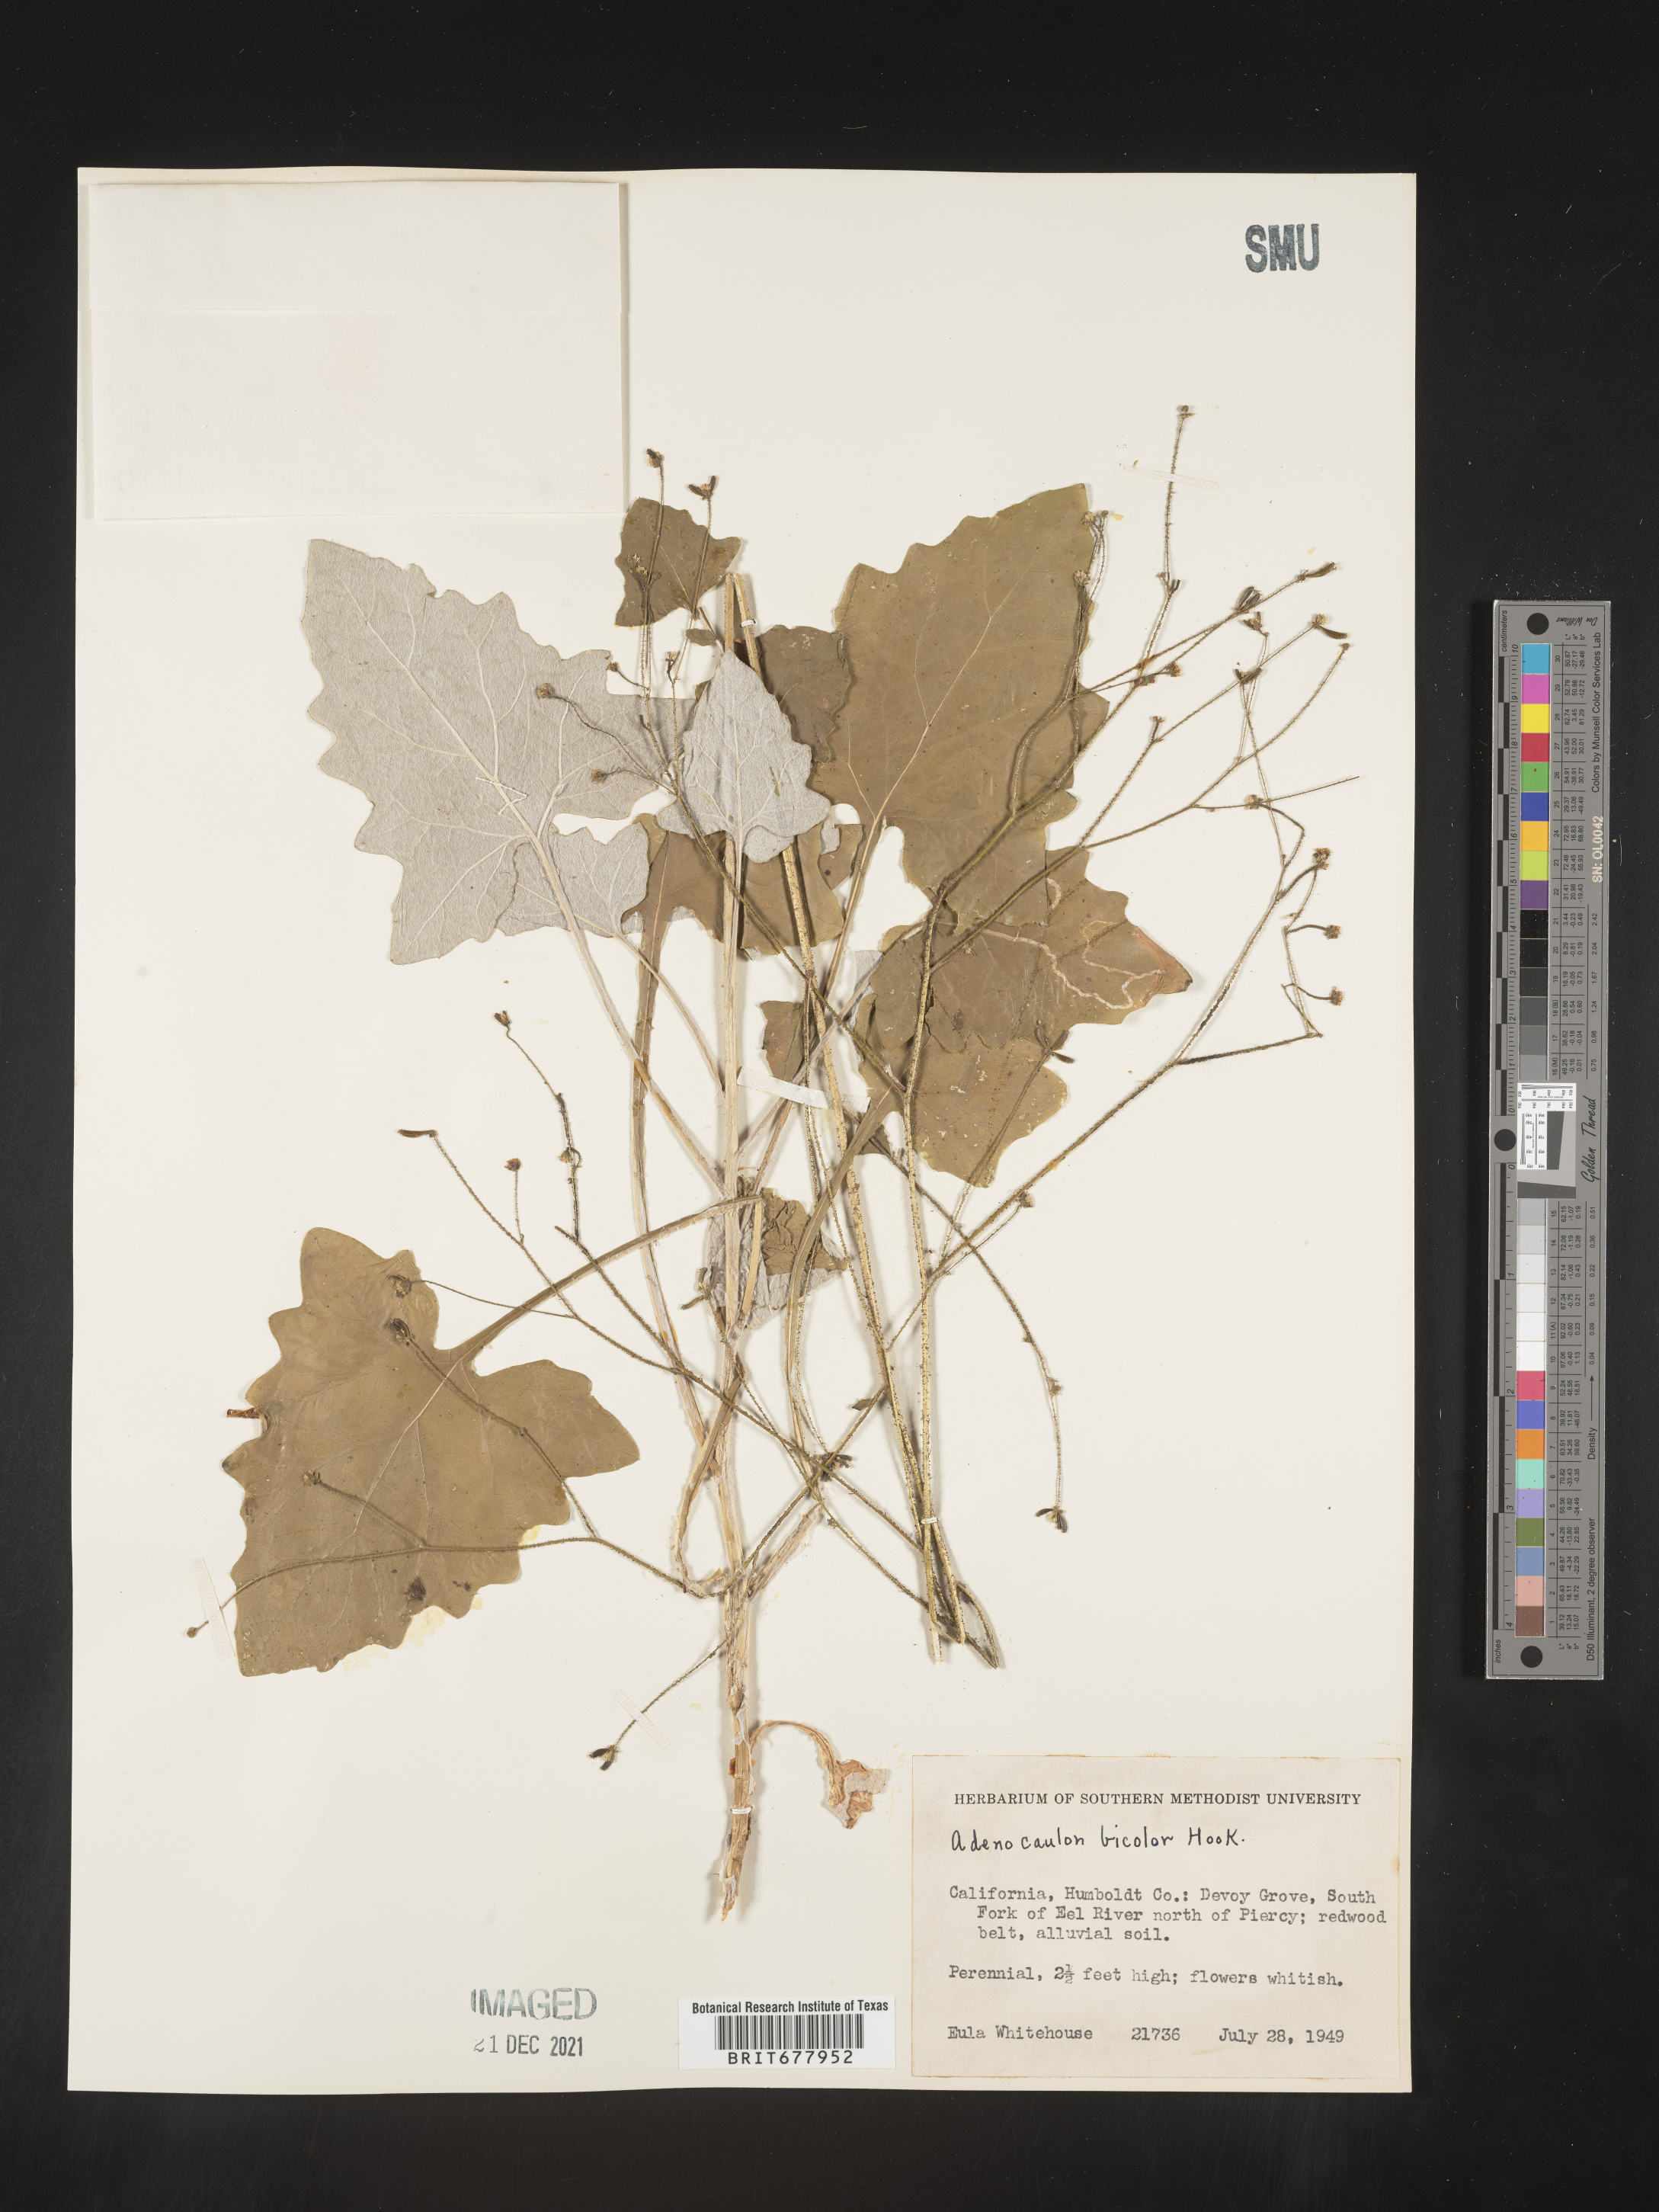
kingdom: Plantae
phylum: Tracheophyta
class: Magnoliopsida
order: Asterales
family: Asteraceae
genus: Adenocaulon
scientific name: Adenocaulon
